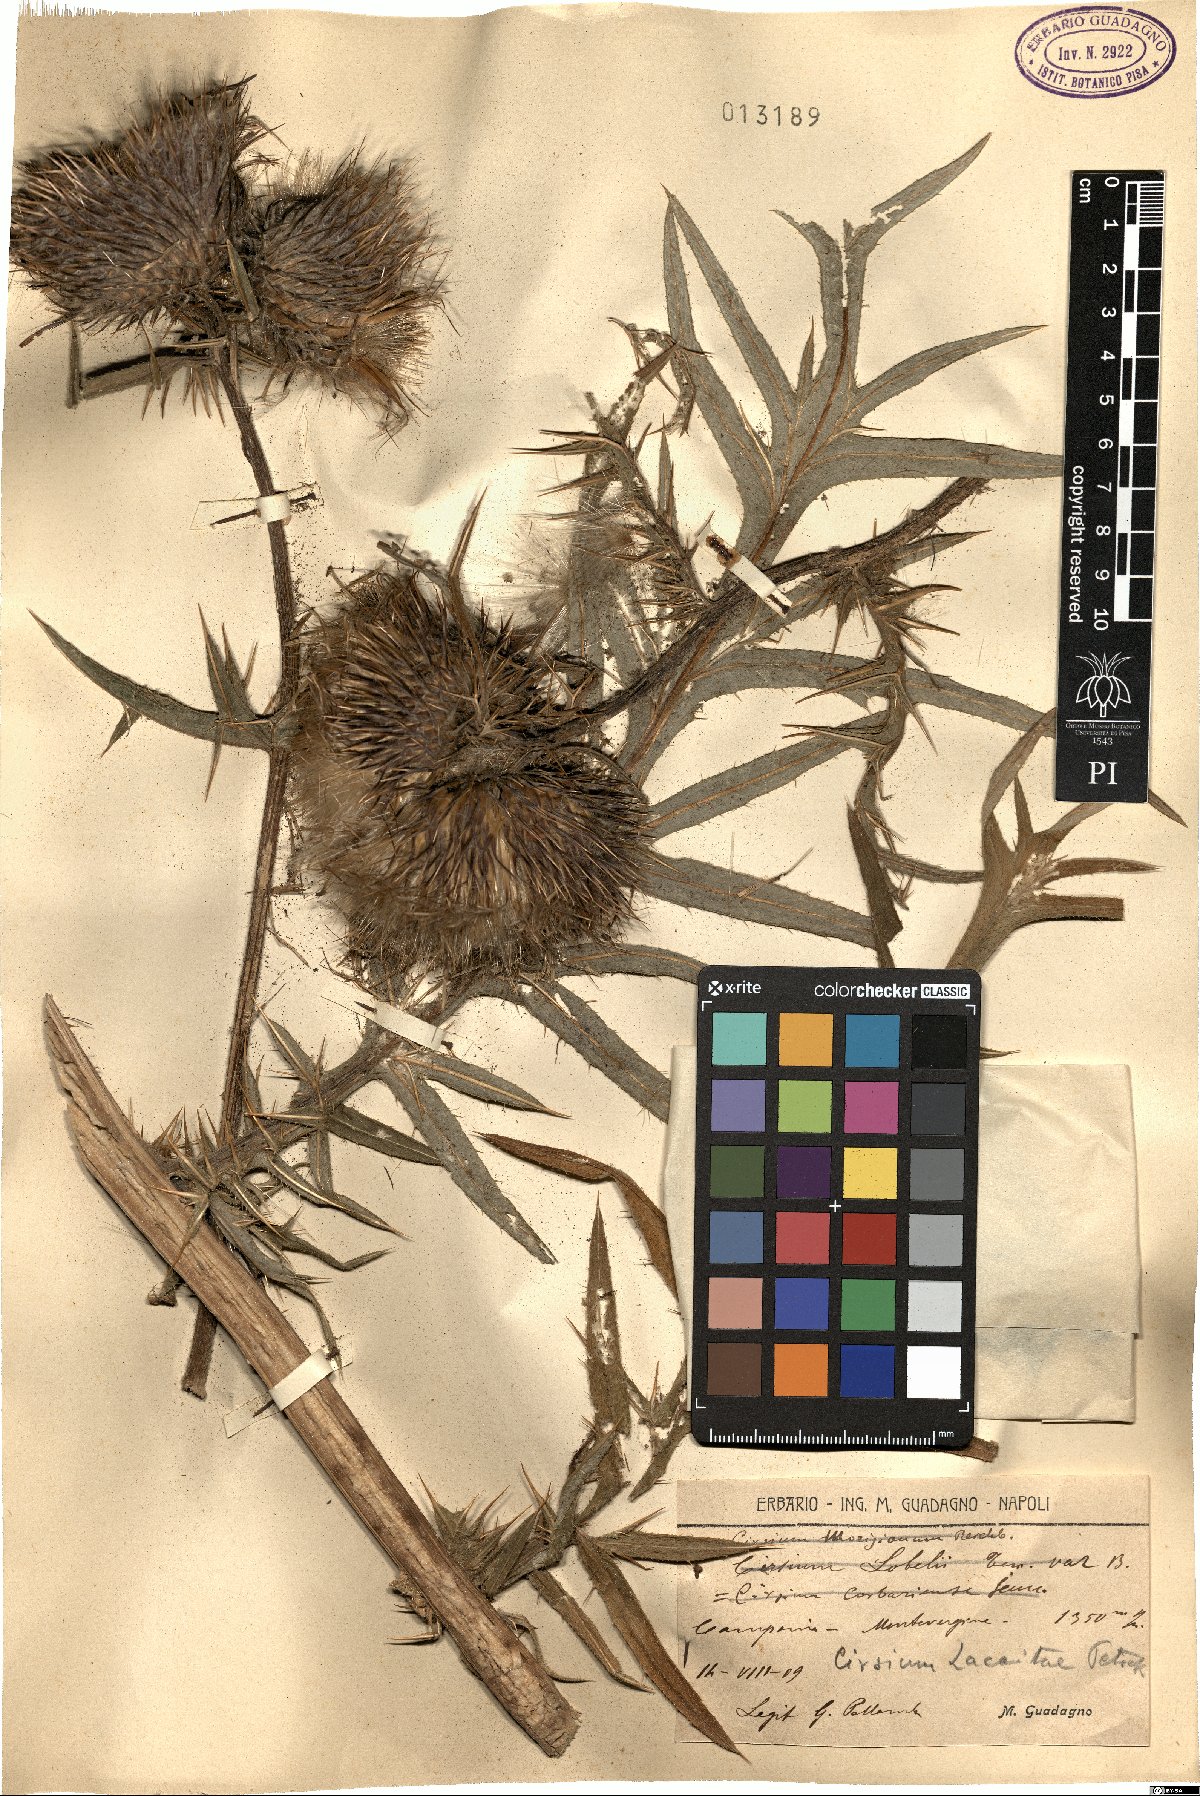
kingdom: Plantae
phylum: Tracheophyta
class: Magnoliopsida
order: Asterales
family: Asteraceae
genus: Lophiolepis
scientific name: Lophiolepis lacaitae
